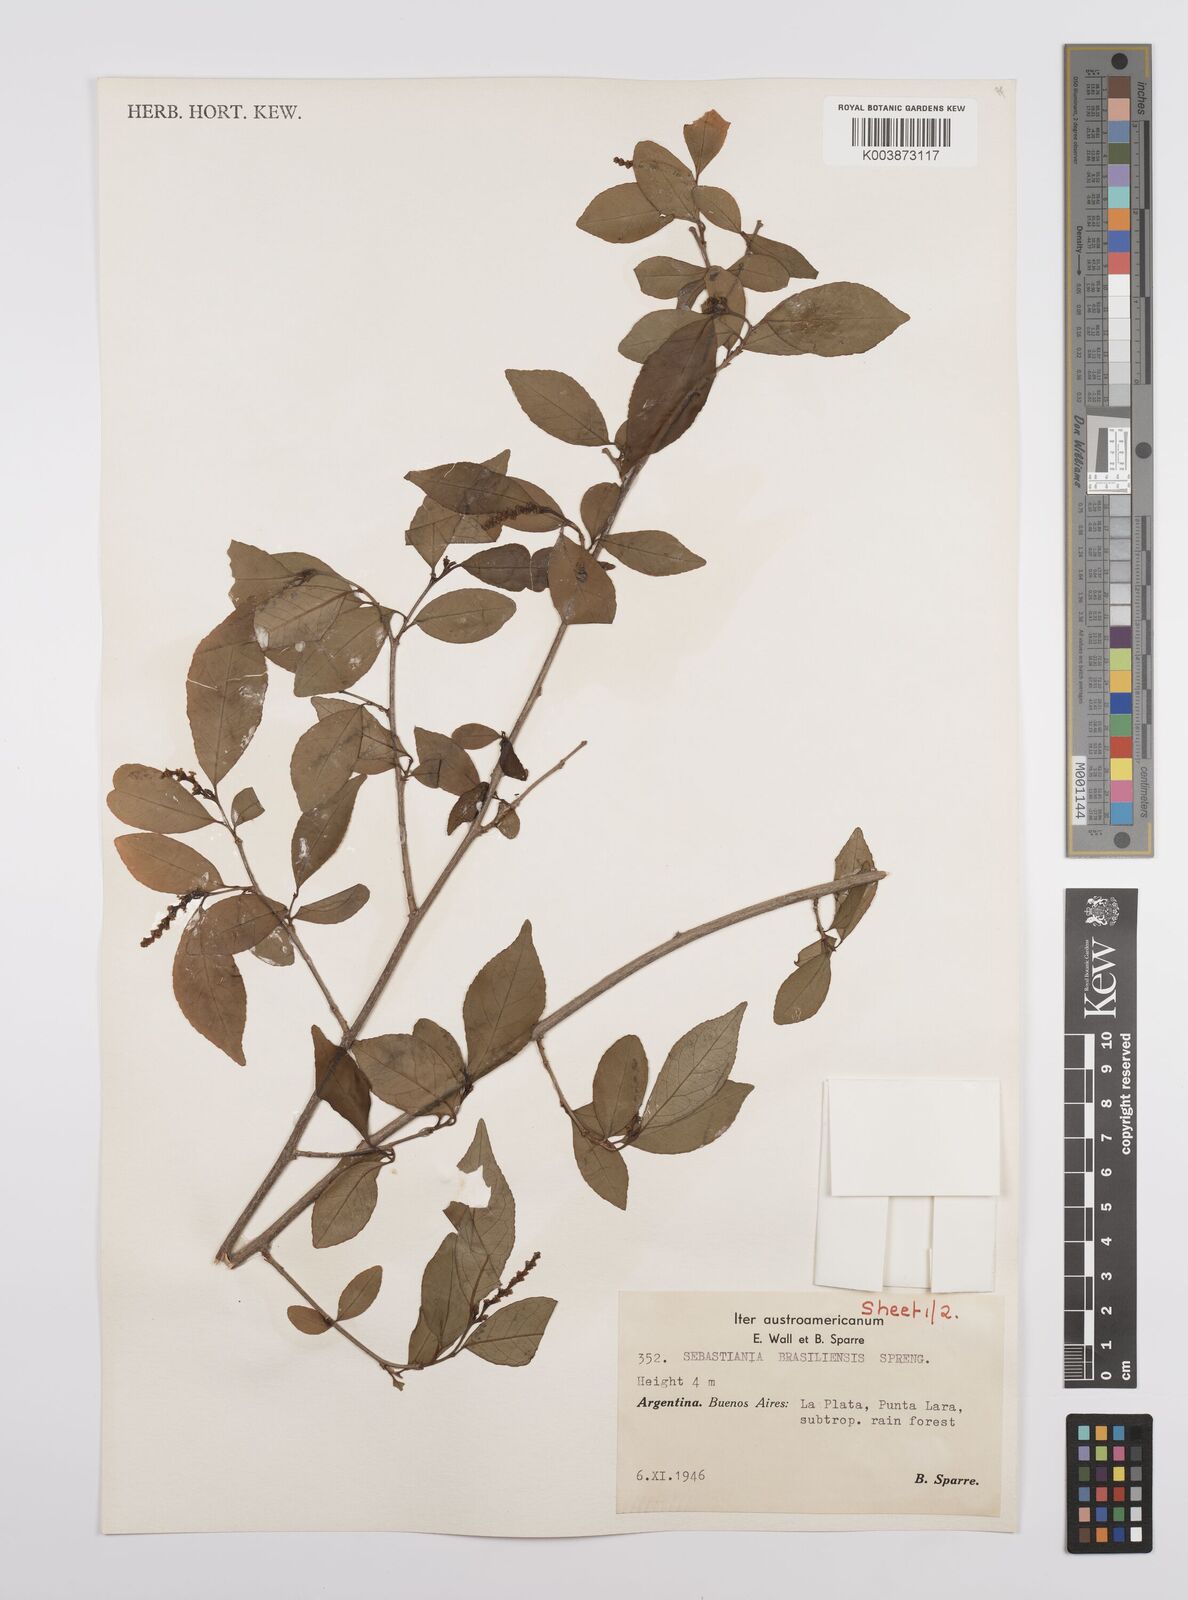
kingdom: Plantae
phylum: Tracheophyta
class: Magnoliopsida
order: Malpighiales
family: Euphorbiaceae
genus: Sebastiania
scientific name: Sebastiania brasiliensis
